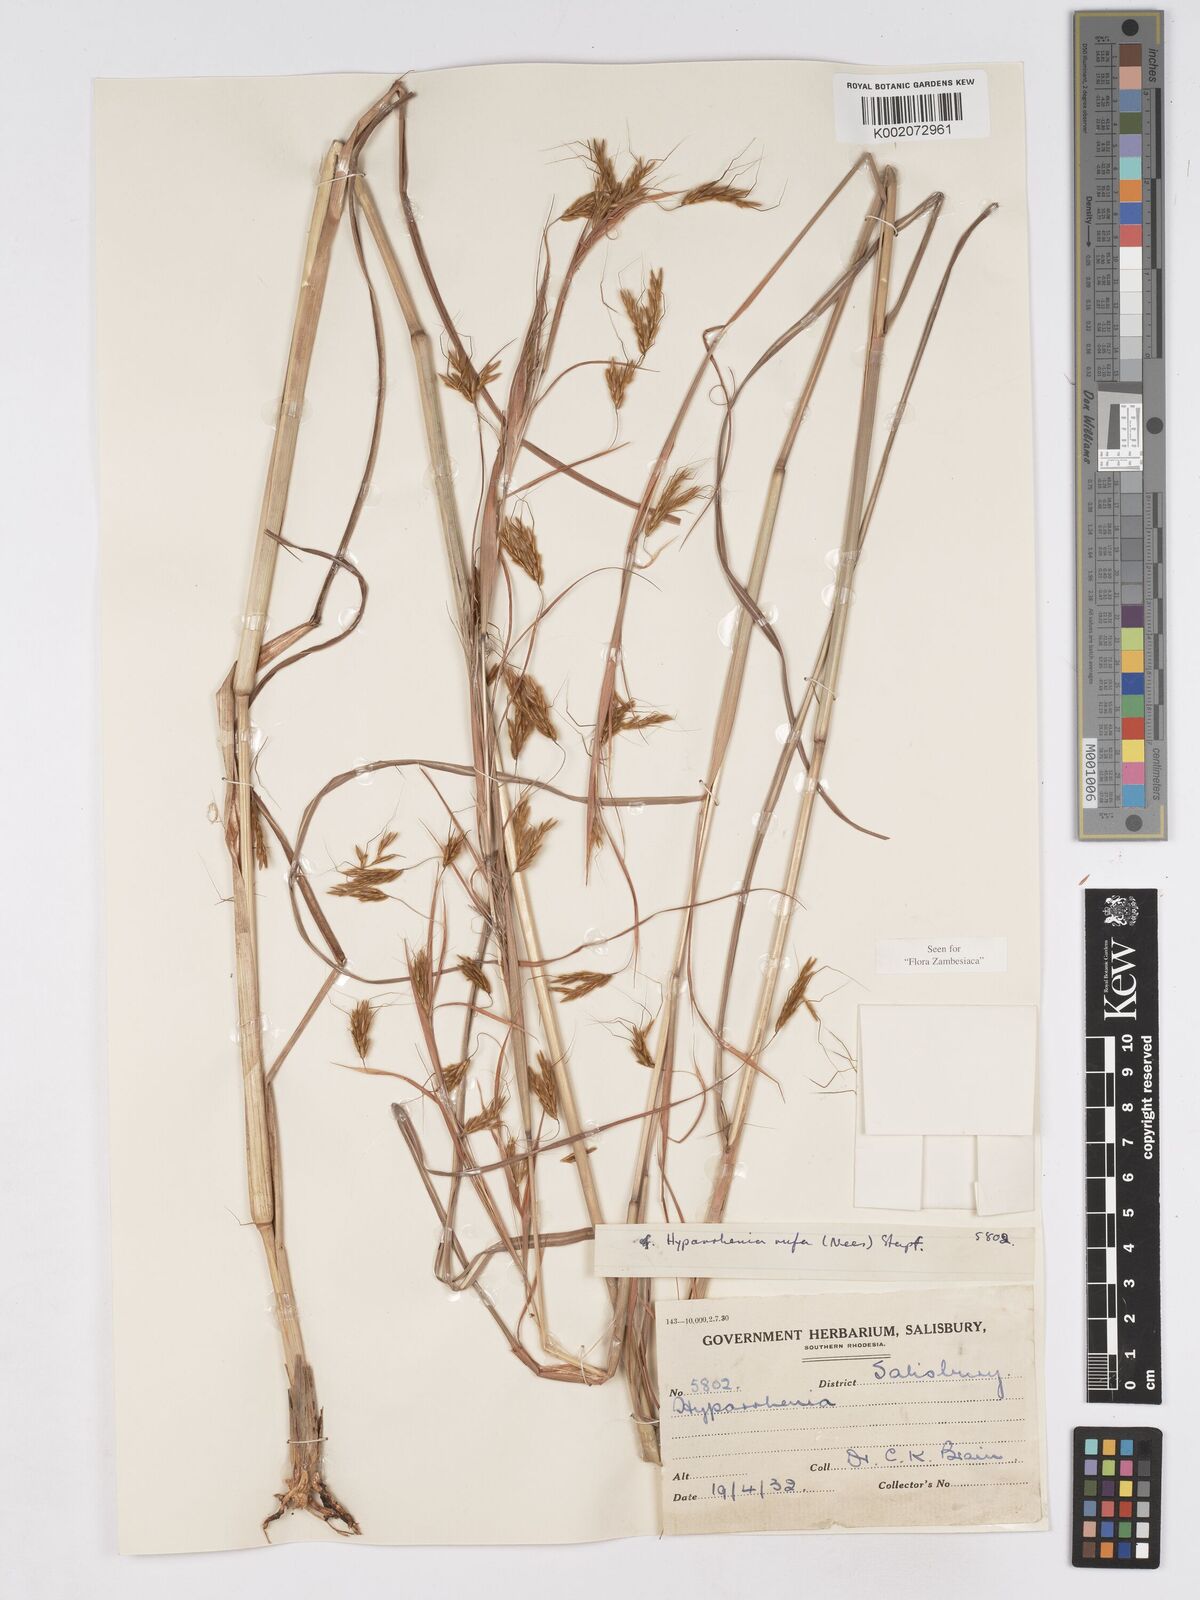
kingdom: Plantae
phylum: Tracheophyta
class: Liliopsida
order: Poales
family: Poaceae
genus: Hyparrhenia
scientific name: Hyparrhenia rufa
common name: Jaraguagrass
